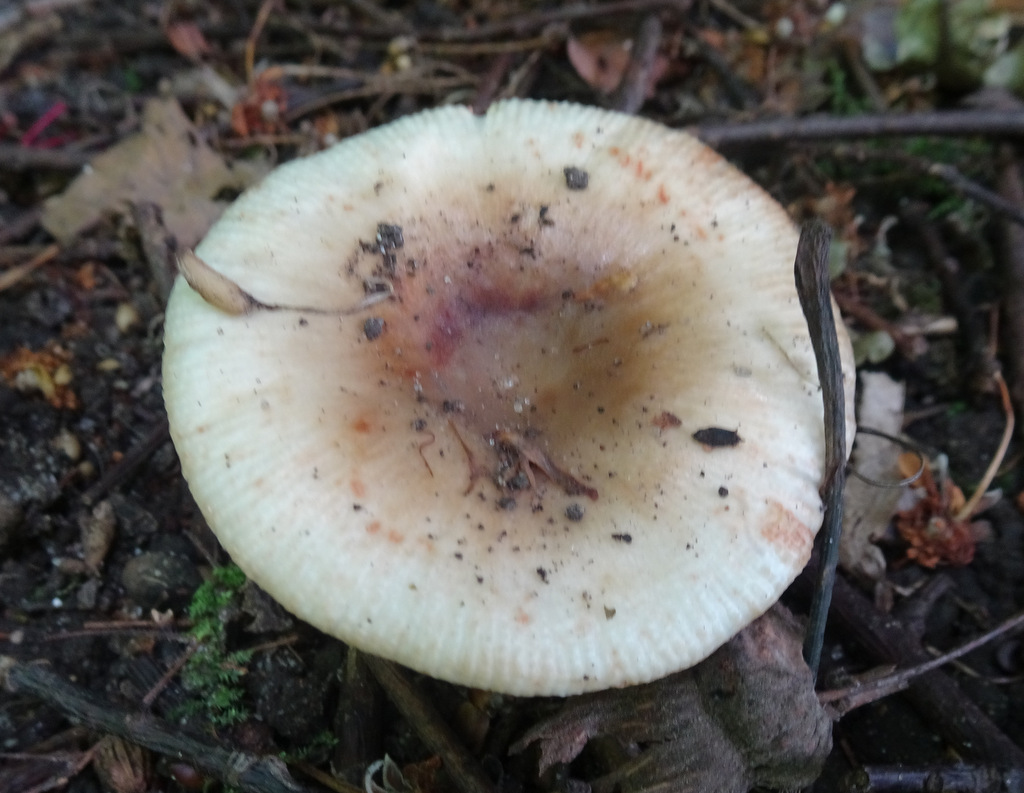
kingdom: Fungi
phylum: Basidiomycota
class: Agaricomycetes
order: Russulales
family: Russulaceae
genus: Russula
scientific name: Russula recondita
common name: mild kam-skørhat
